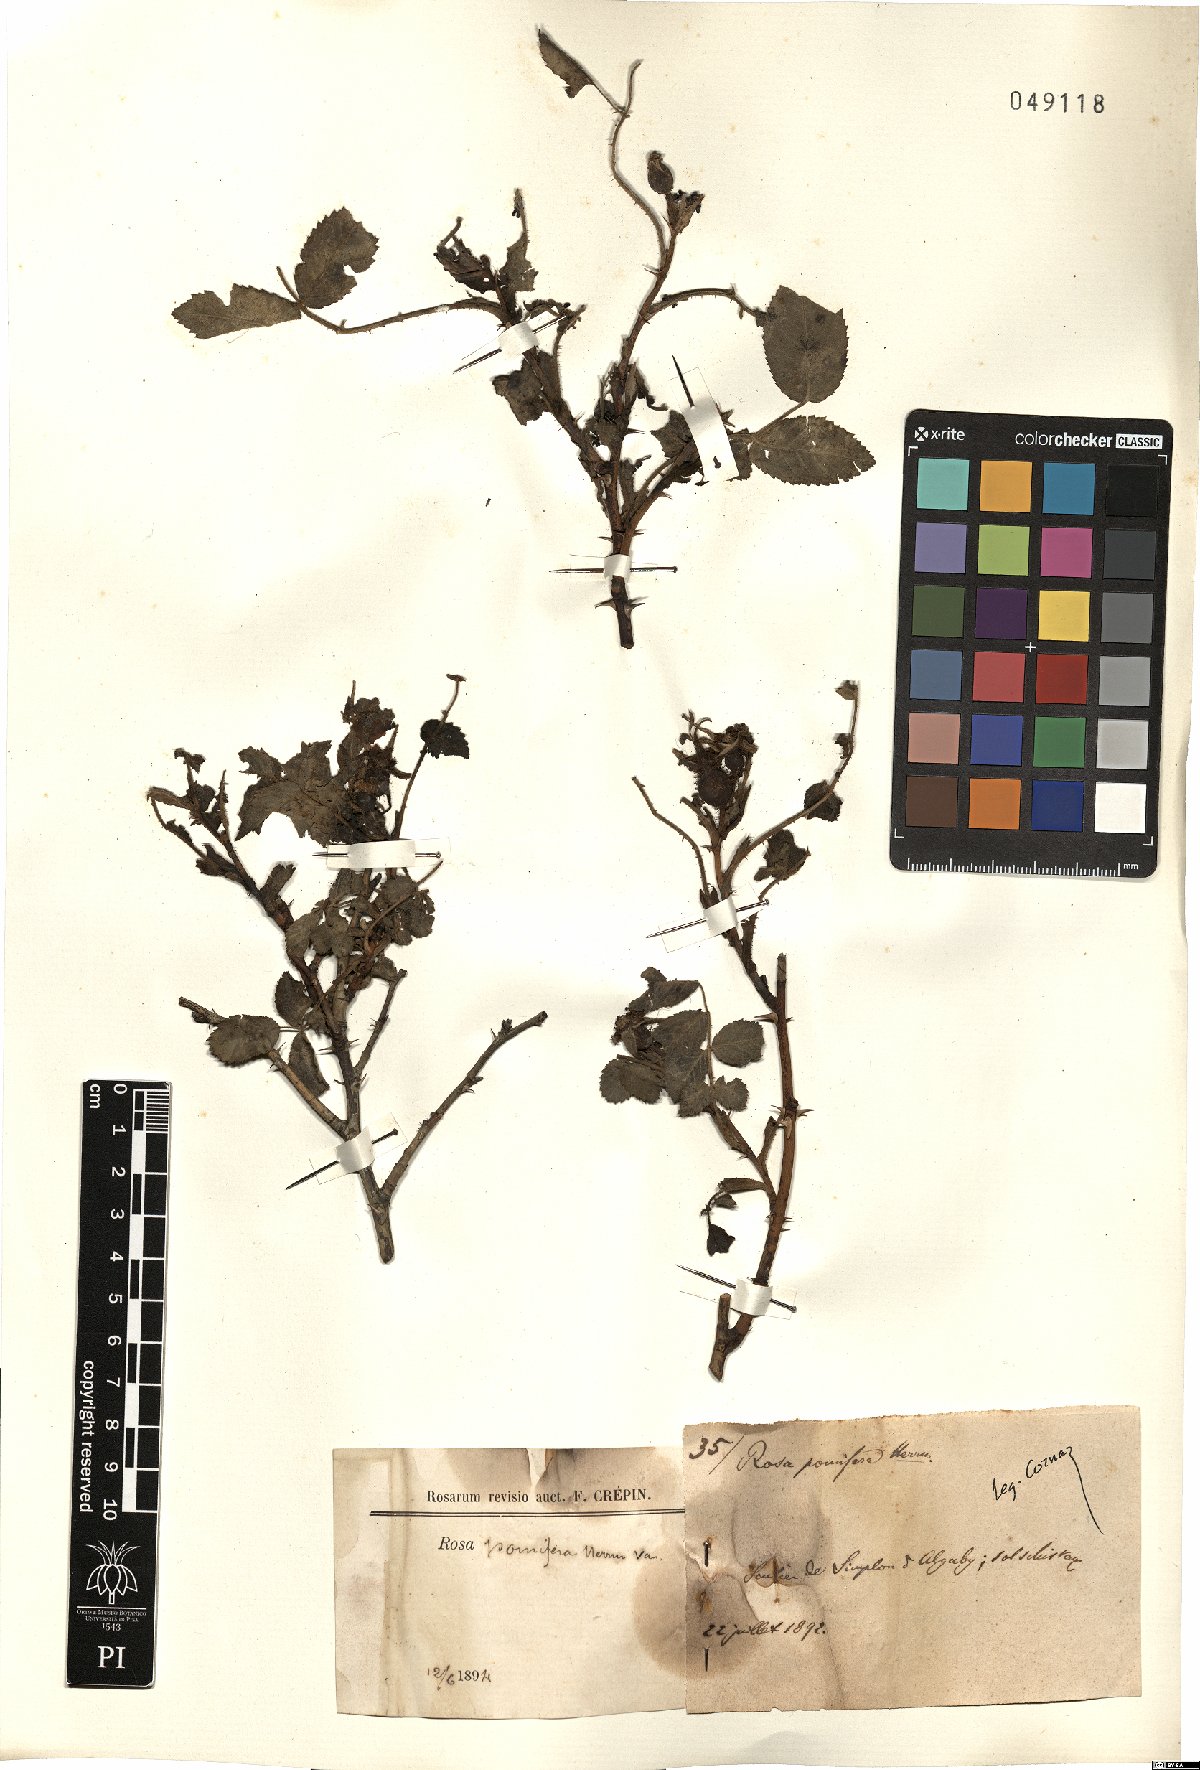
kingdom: Plantae
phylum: Tracheophyta
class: Magnoliopsida
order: Rosales
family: Rosaceae
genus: Rosa
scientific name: Rosa villosa
